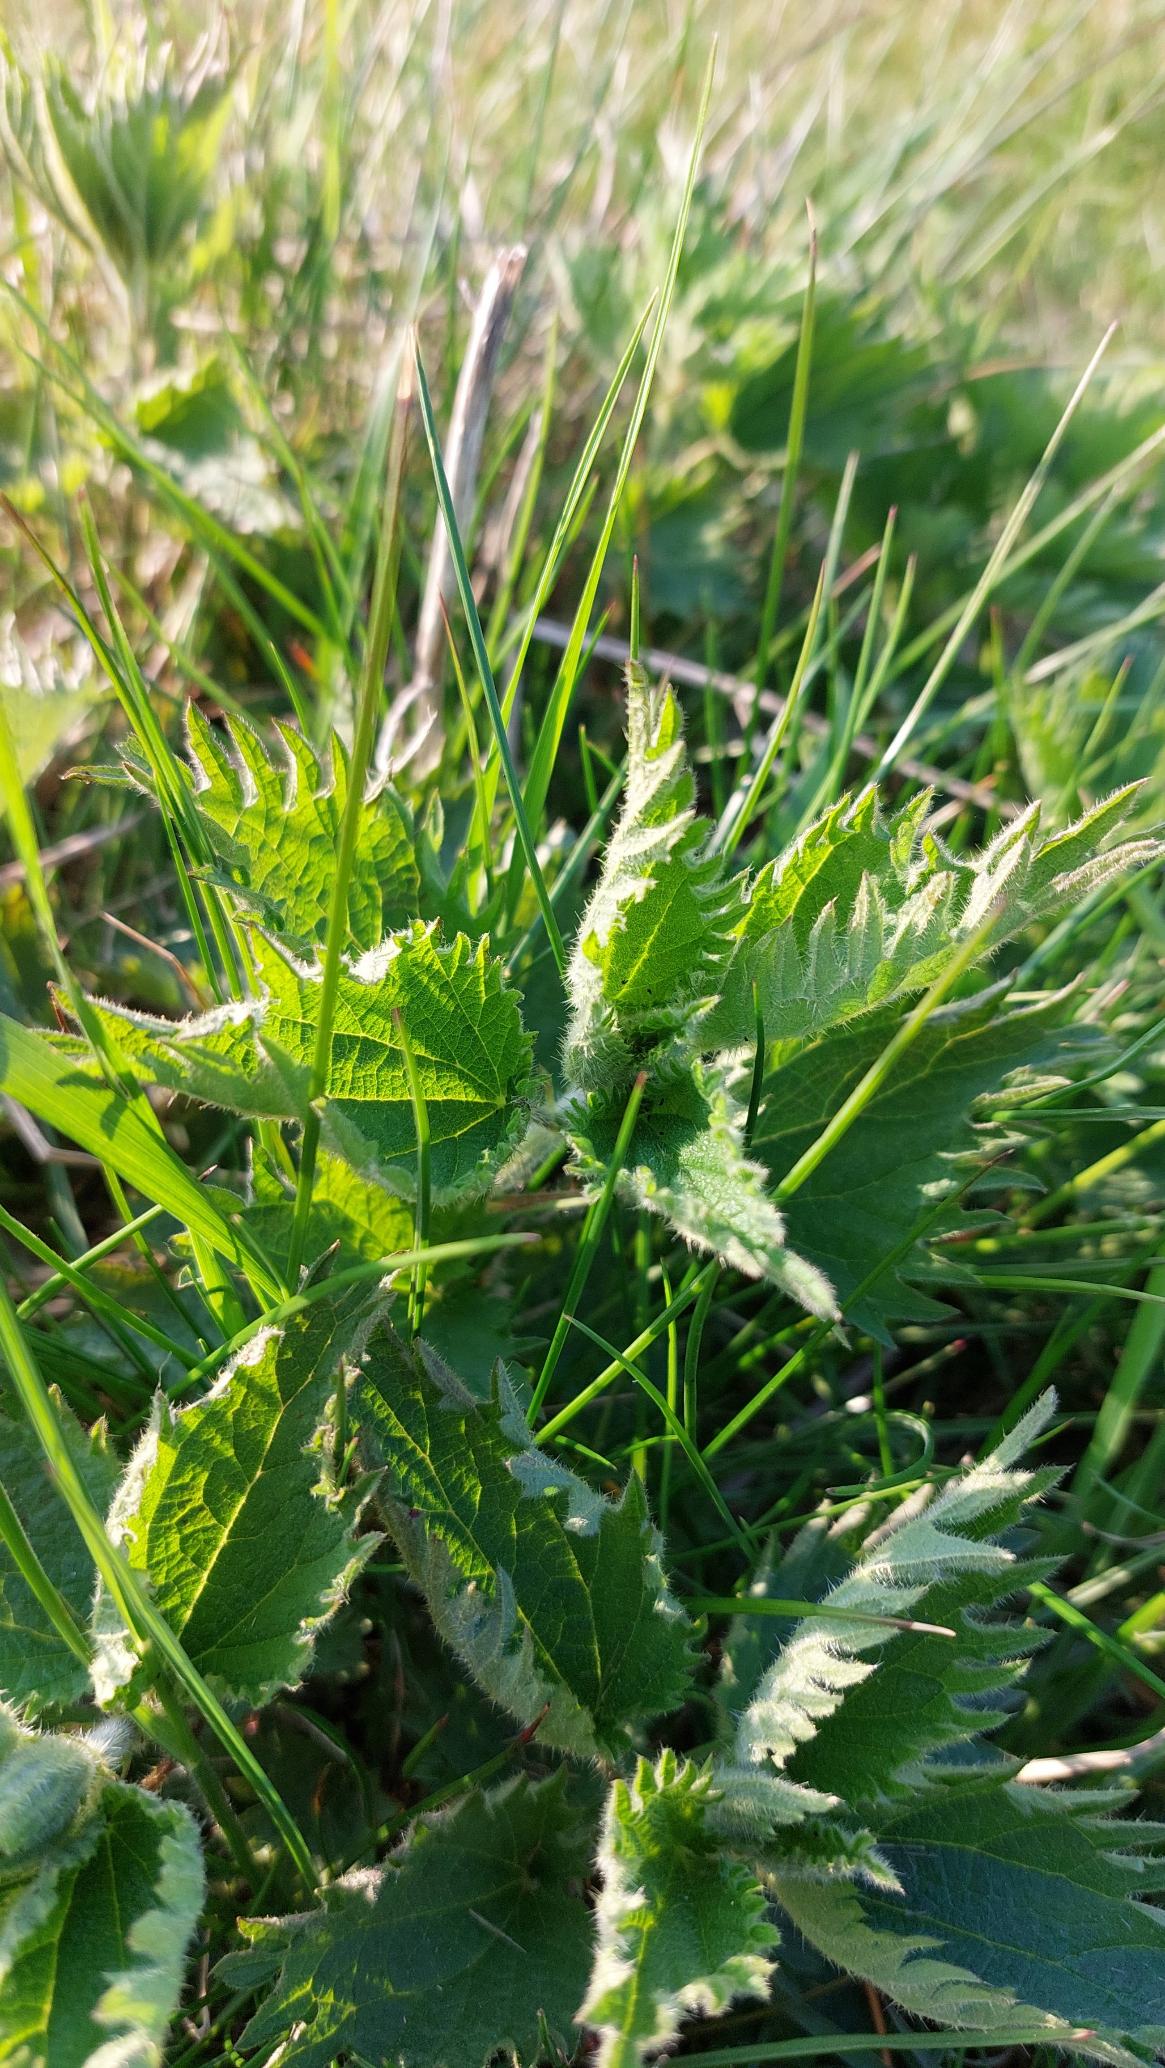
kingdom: Plantae
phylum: Tracheophyta
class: Magnoliopsida
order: Rosales
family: Urticaceae
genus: Urtica
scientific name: Urtica dioica
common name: Stor nælde
